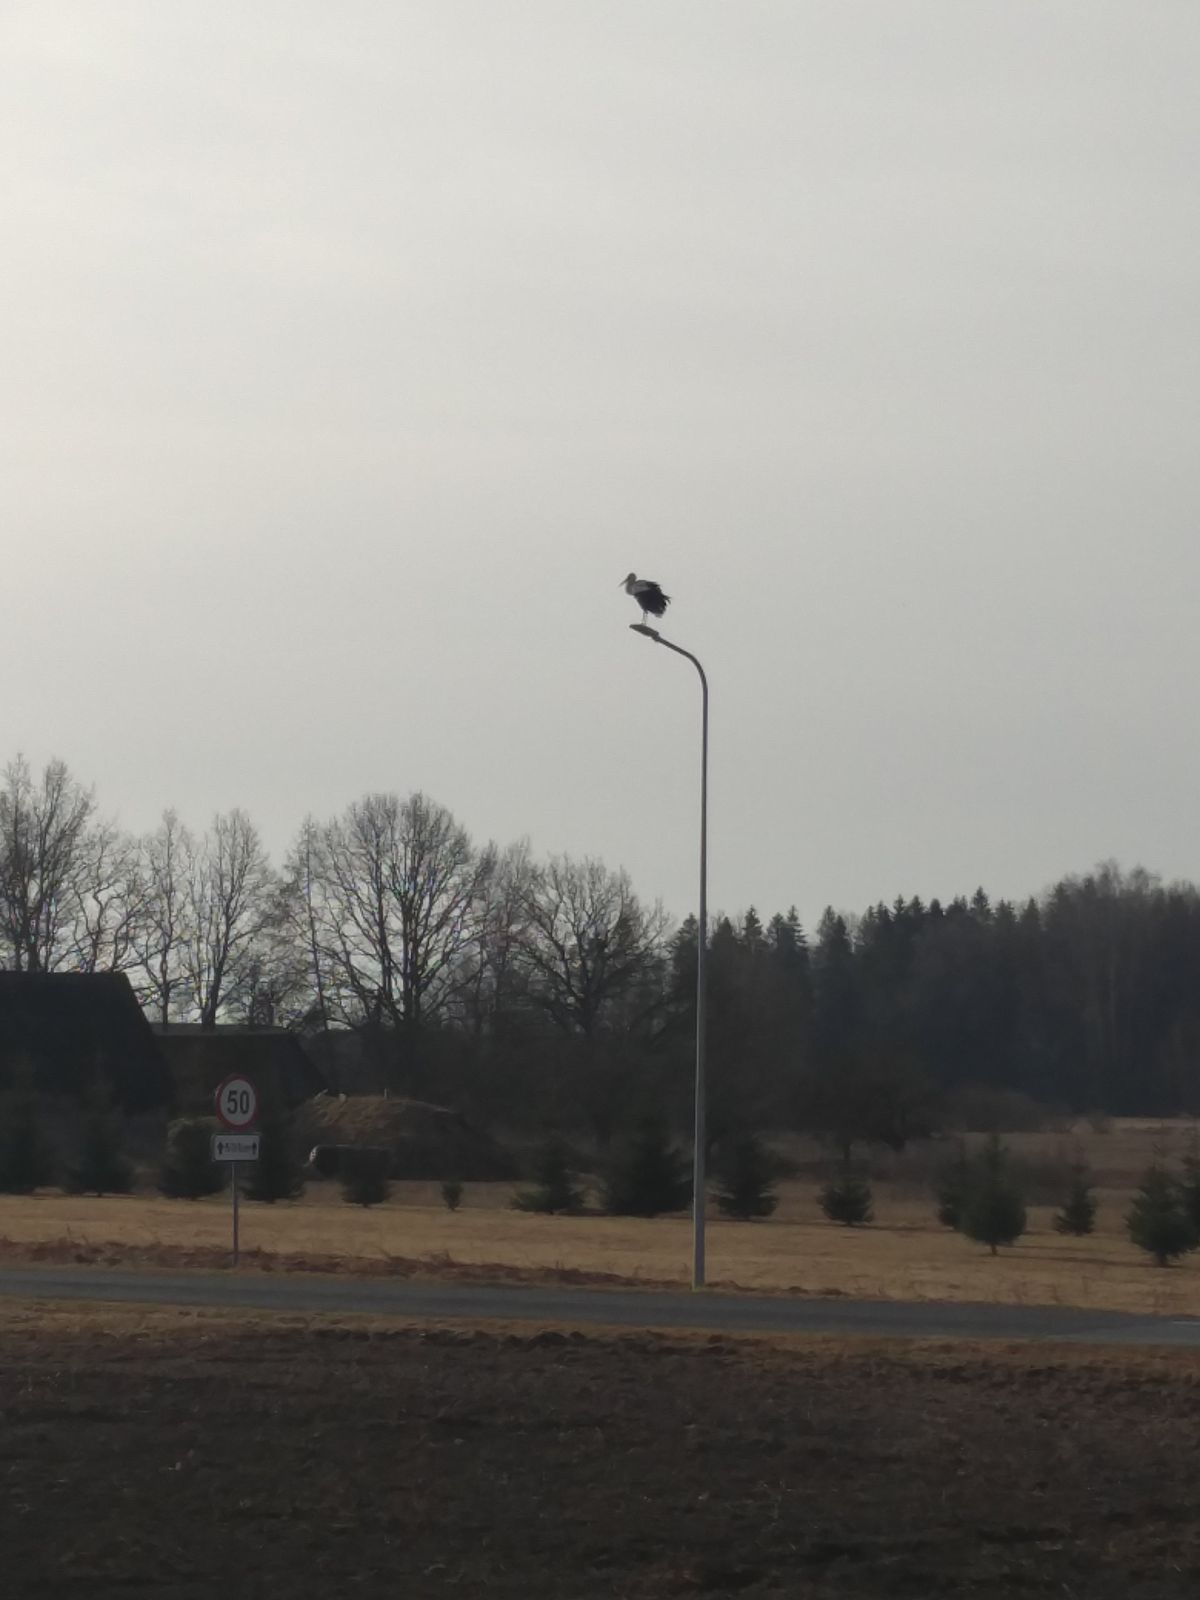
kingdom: Animalia
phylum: Chordata
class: Aves
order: Ciconiiformes
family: Ciconiidae
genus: Ciconia
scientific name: Ciconia ciconia
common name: White stork
